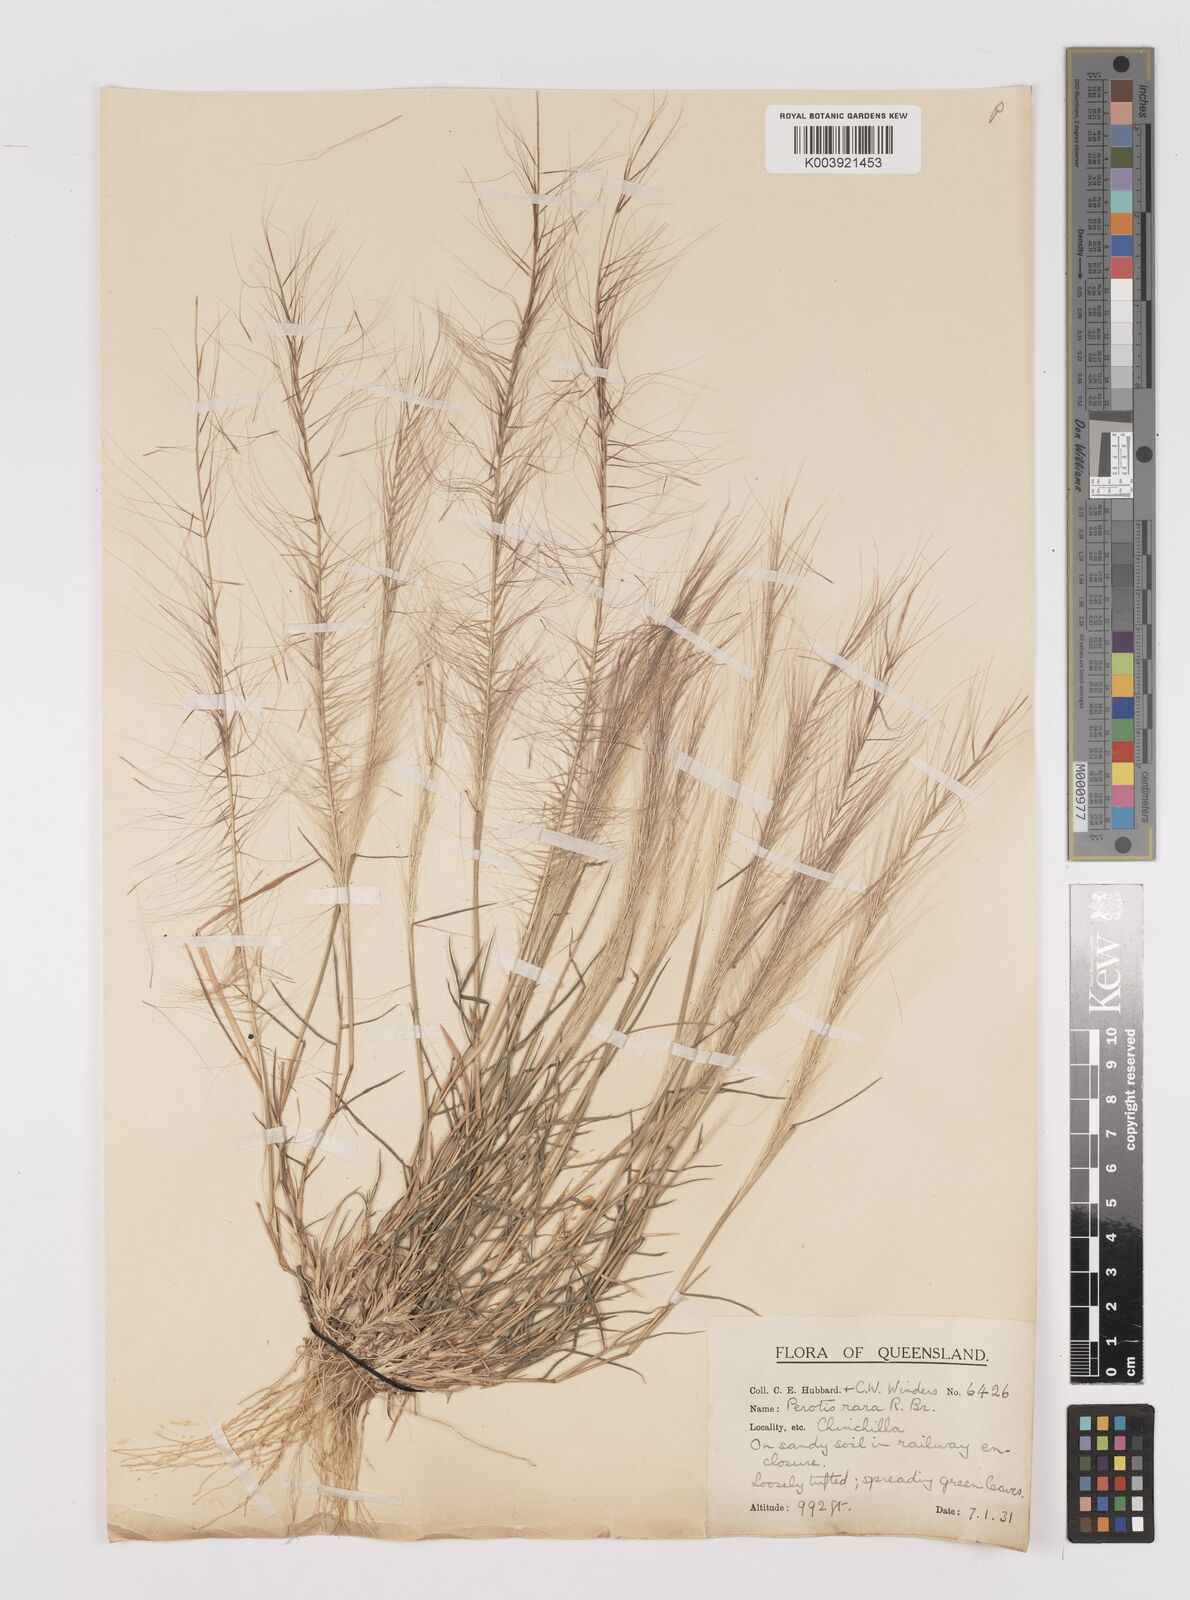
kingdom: Plantae
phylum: Tracheophyta
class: Liliopsida
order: Poales
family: Poaceae
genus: Perotis
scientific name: Perotis rara
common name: Comet grass
